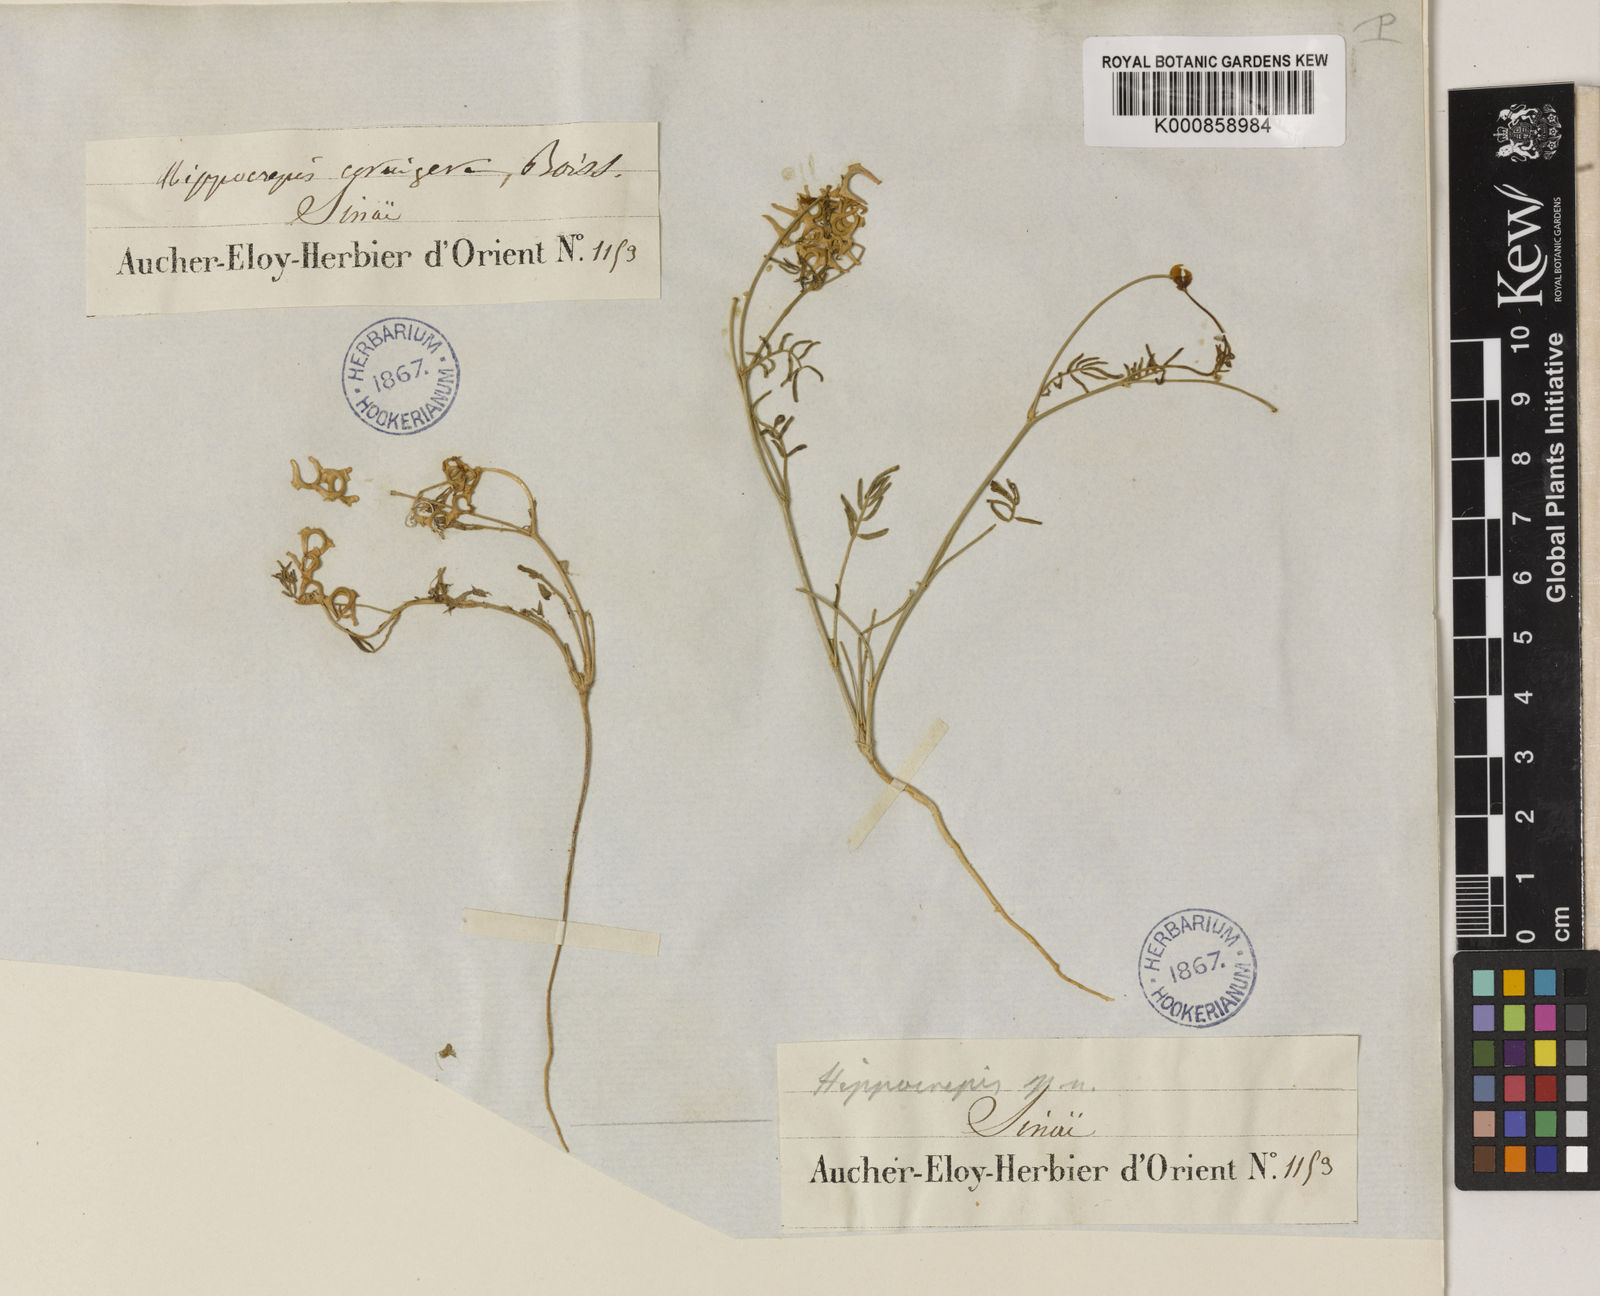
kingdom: Plantae
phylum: Tracheophyta
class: Magnoliopsida
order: Fabales
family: Fabaceae
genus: Hippocrepis
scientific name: Hippocrepis areolata
